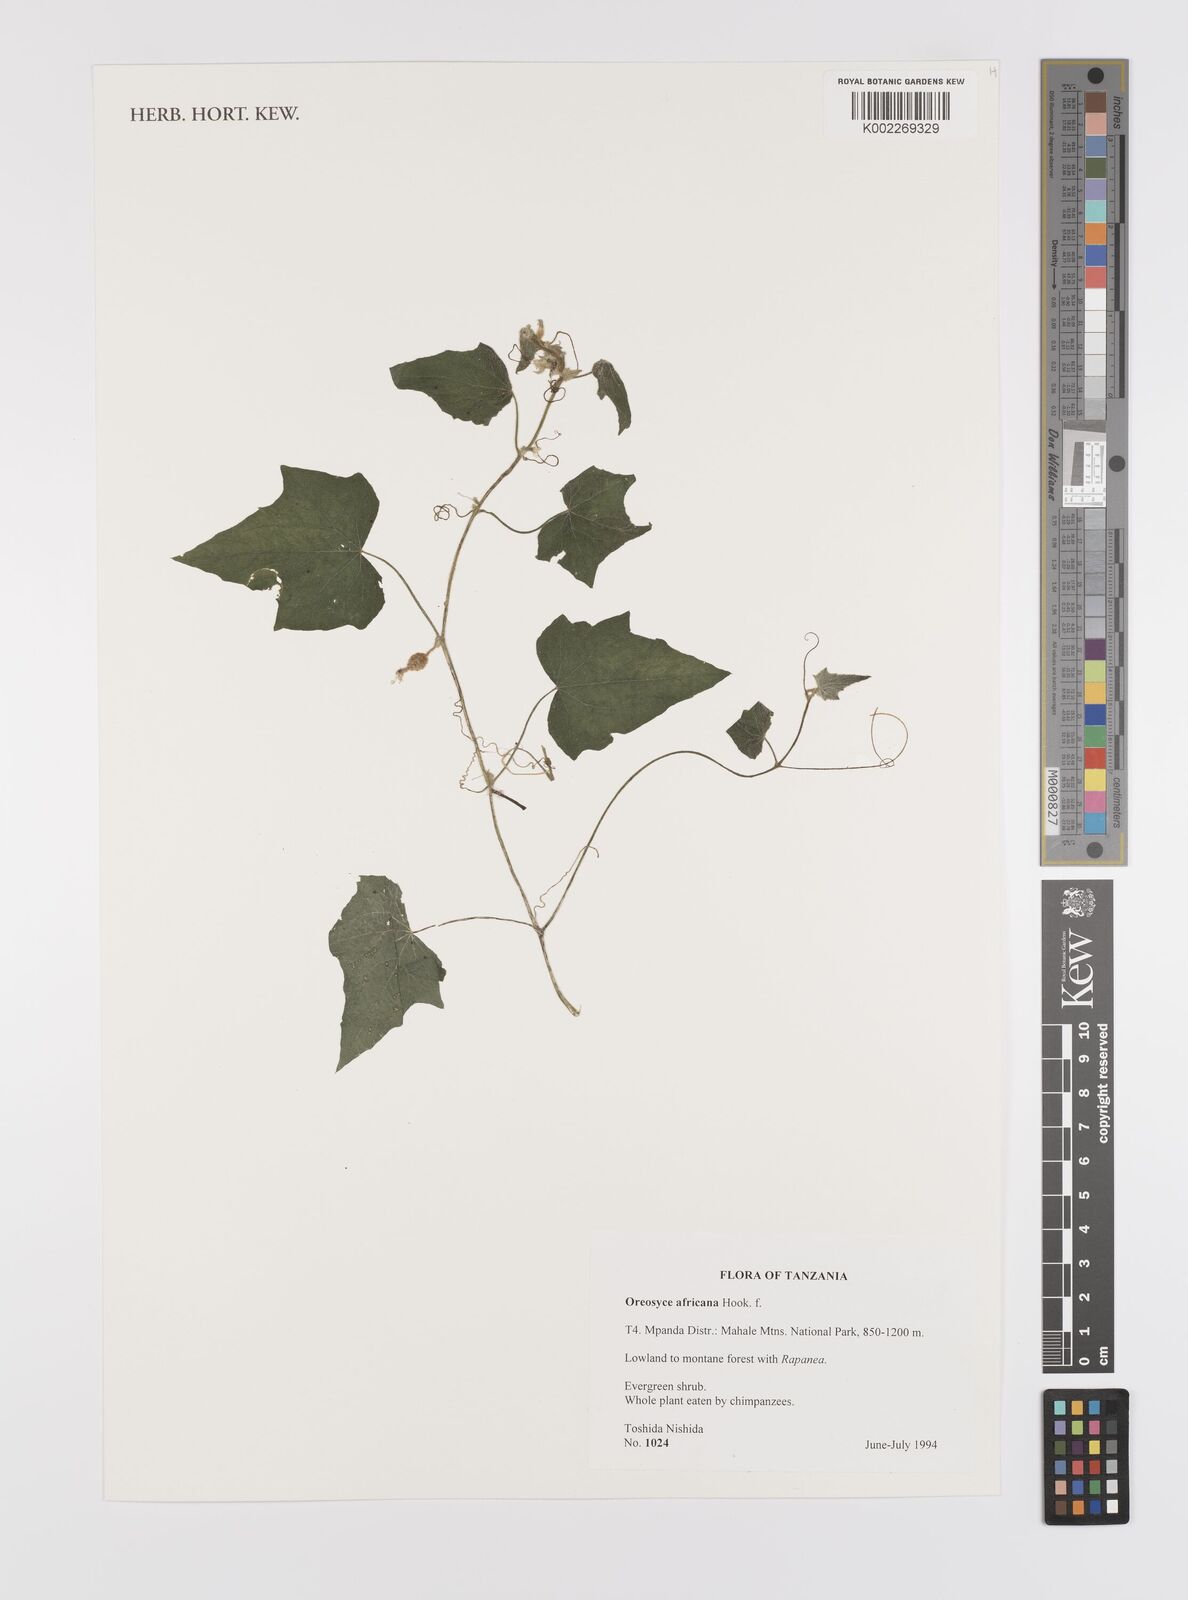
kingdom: Plantae
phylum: Tracheophyta
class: Magnoliopsida
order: Cucurbitales
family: Cucurbitaceae
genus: Cucumis
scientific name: Cucumis oreosyce
